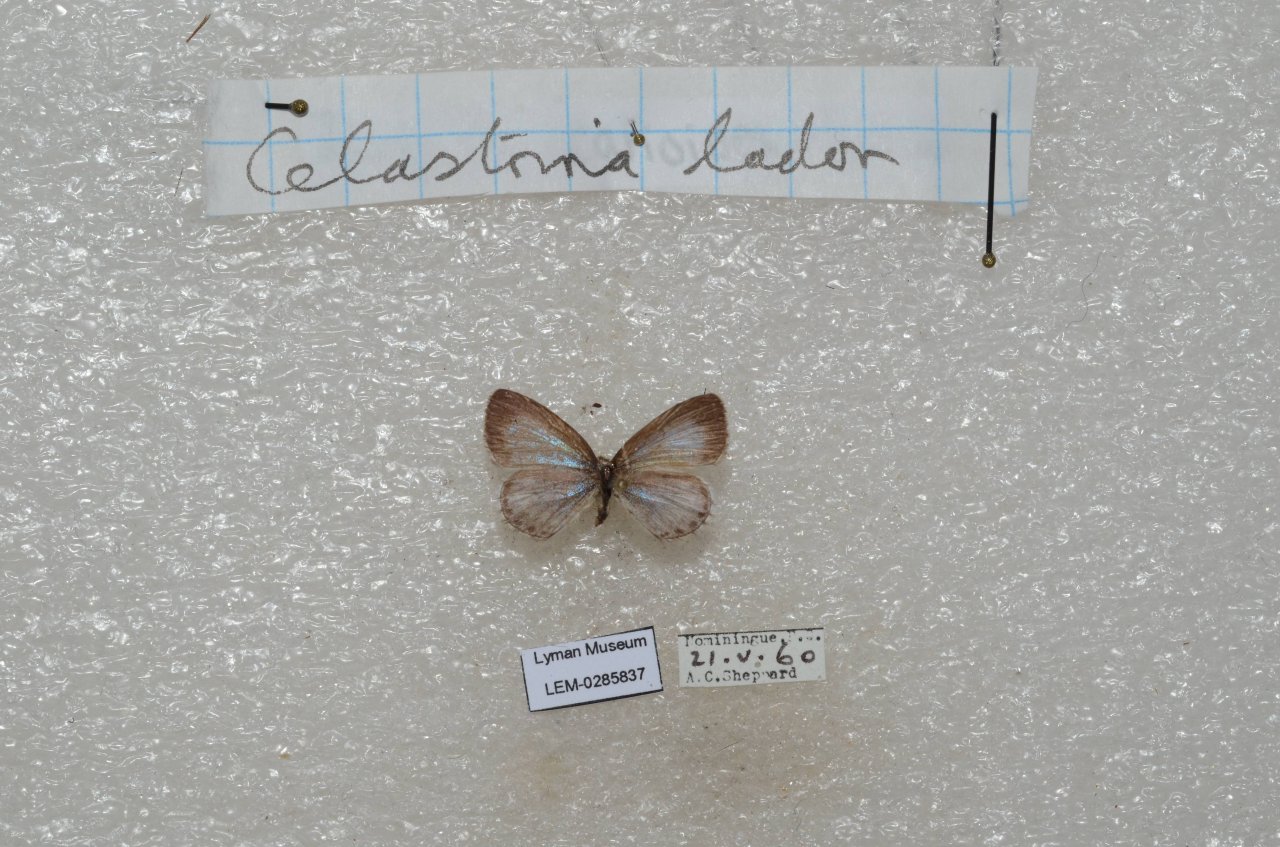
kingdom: Animalia
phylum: Arthropoda
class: Insecta
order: Lepidoptera
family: Lycaenidae
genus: Celastrina
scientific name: Celastrina lucia
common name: Northern Spring Azure
